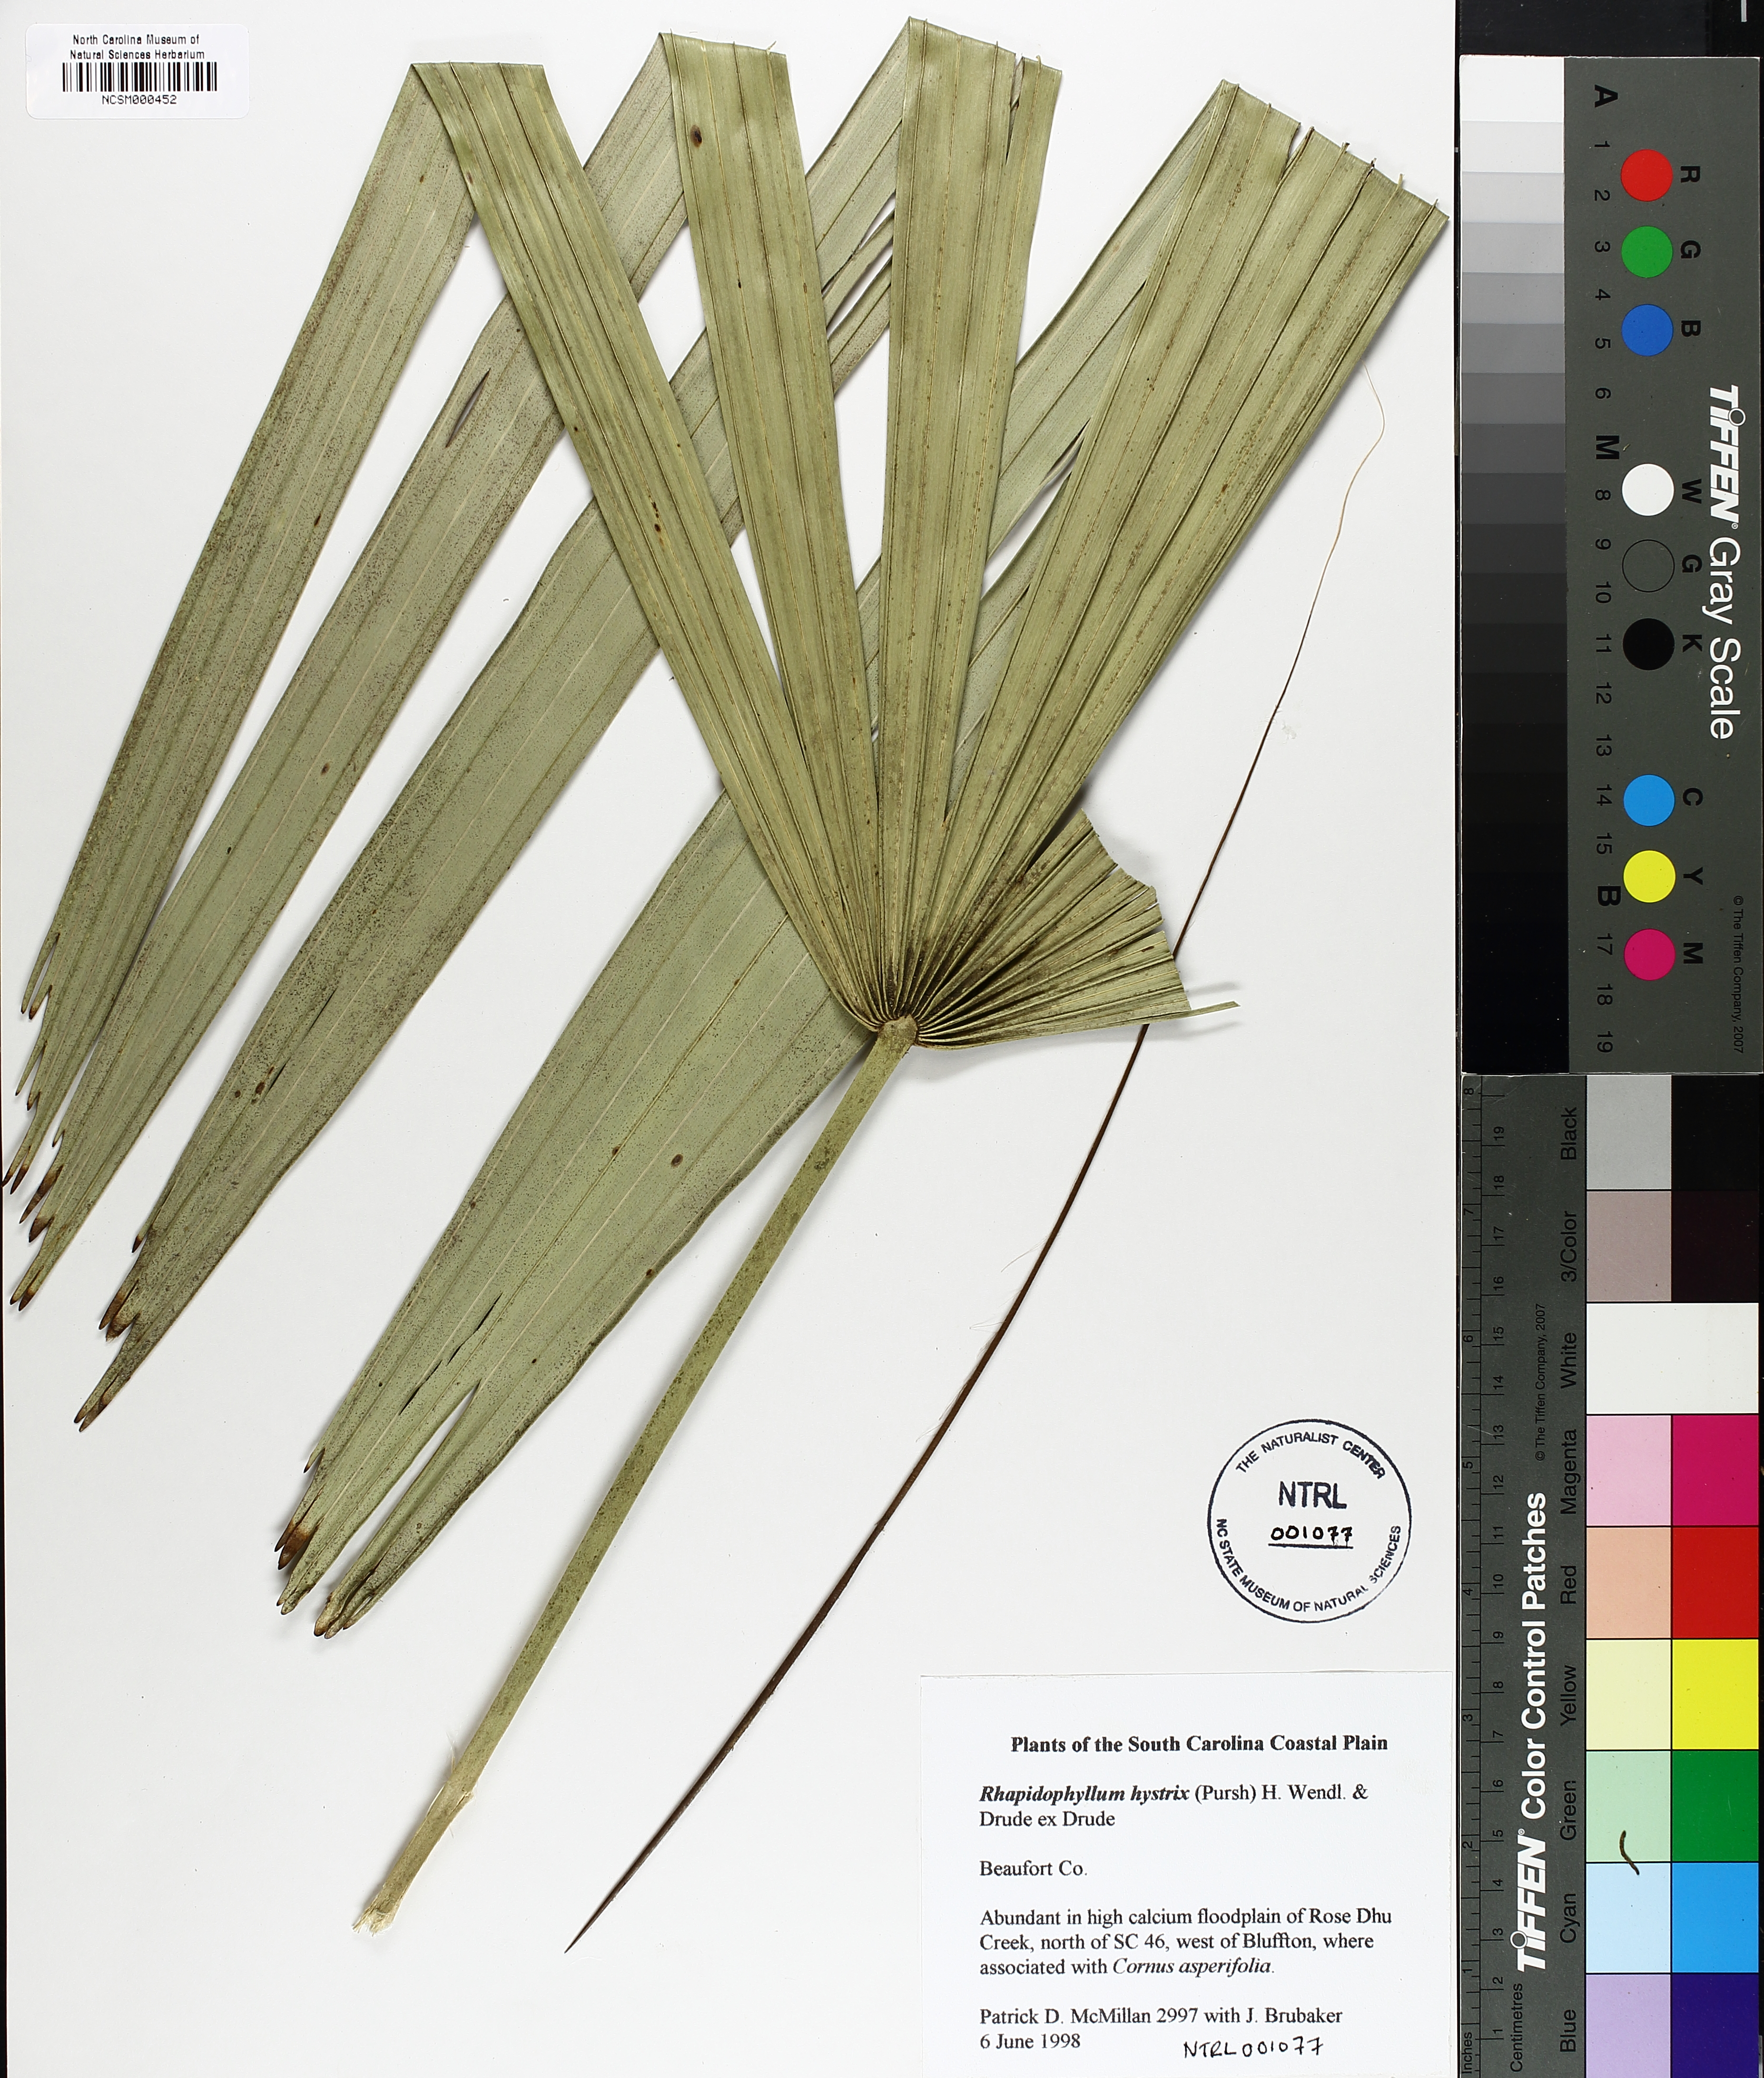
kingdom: Plantae
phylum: Tracheophyta
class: Liliopsida
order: Arecales
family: Arecaceae
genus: Rhapidophyllum
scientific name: Rhapidophyllum hystrix
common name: Porcupine palm
